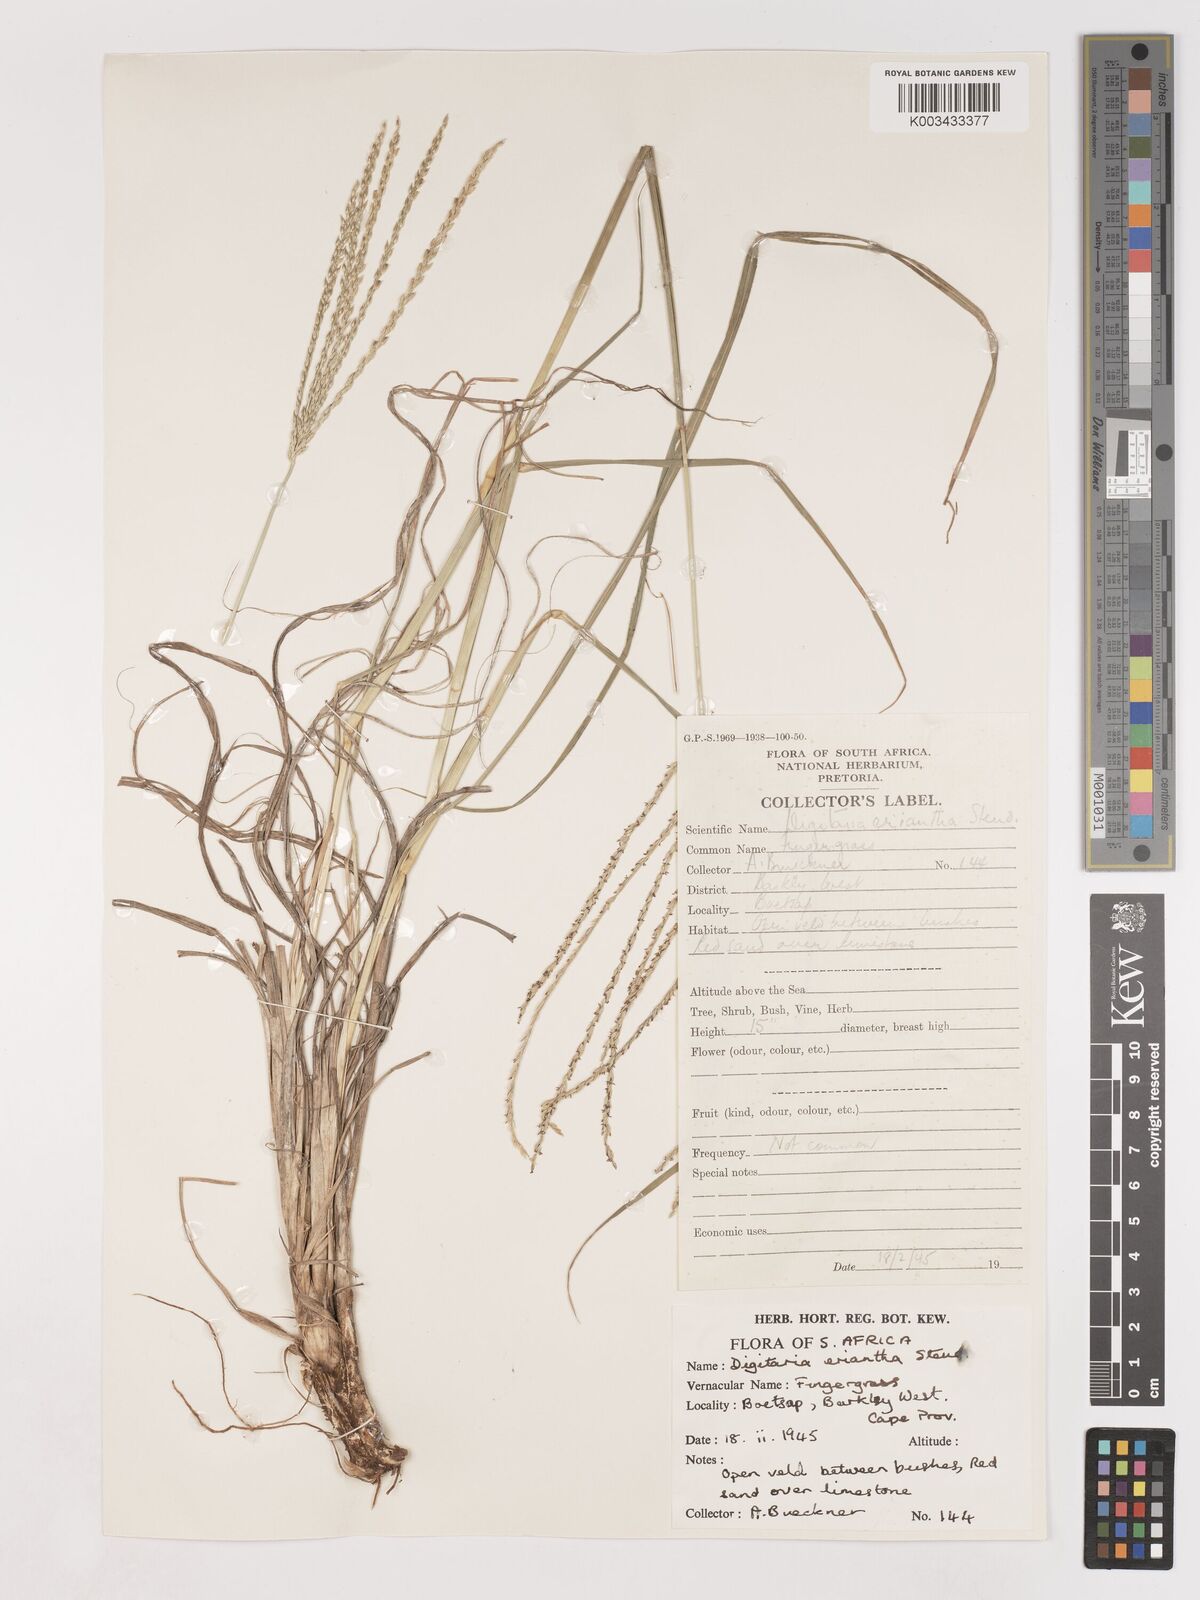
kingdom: Plantae
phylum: Tracheophyta
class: Liliopsida
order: Poales
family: Poaceae
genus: Digitaria
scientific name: Digitaria eriantha
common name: Digitgrass
